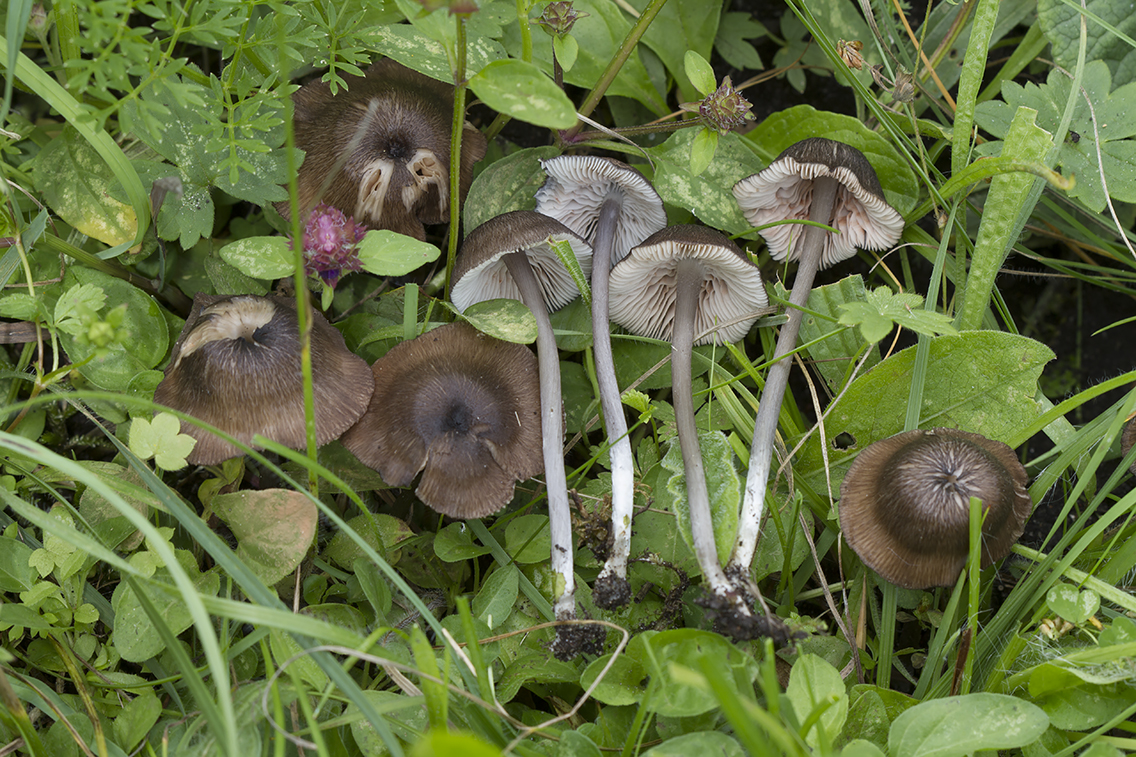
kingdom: Fungi
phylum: Basidiomycota
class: Agaricomycetes
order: Agaricales
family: Entolomataceae
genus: Entoloma
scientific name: Entoloma porphyrogriseum
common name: porfyrgrå rødblad
